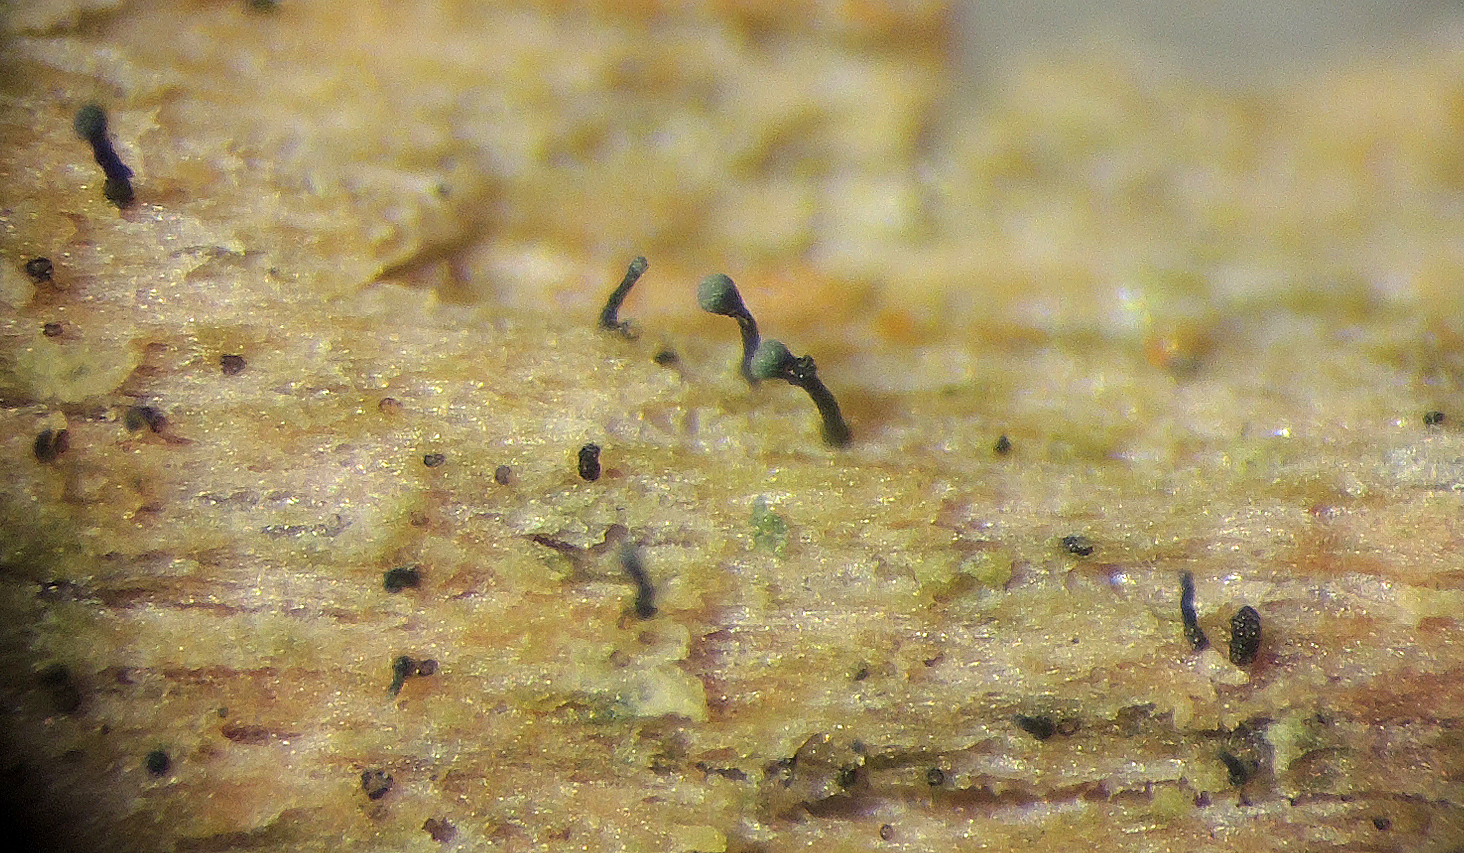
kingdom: Fungi
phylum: Ascomycota
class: Eurotiomycetes
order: Mycocaliciales
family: Mycocaliciaceae
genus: Chaenothecopsis
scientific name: Chaenothecopsis
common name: nålesvamp
